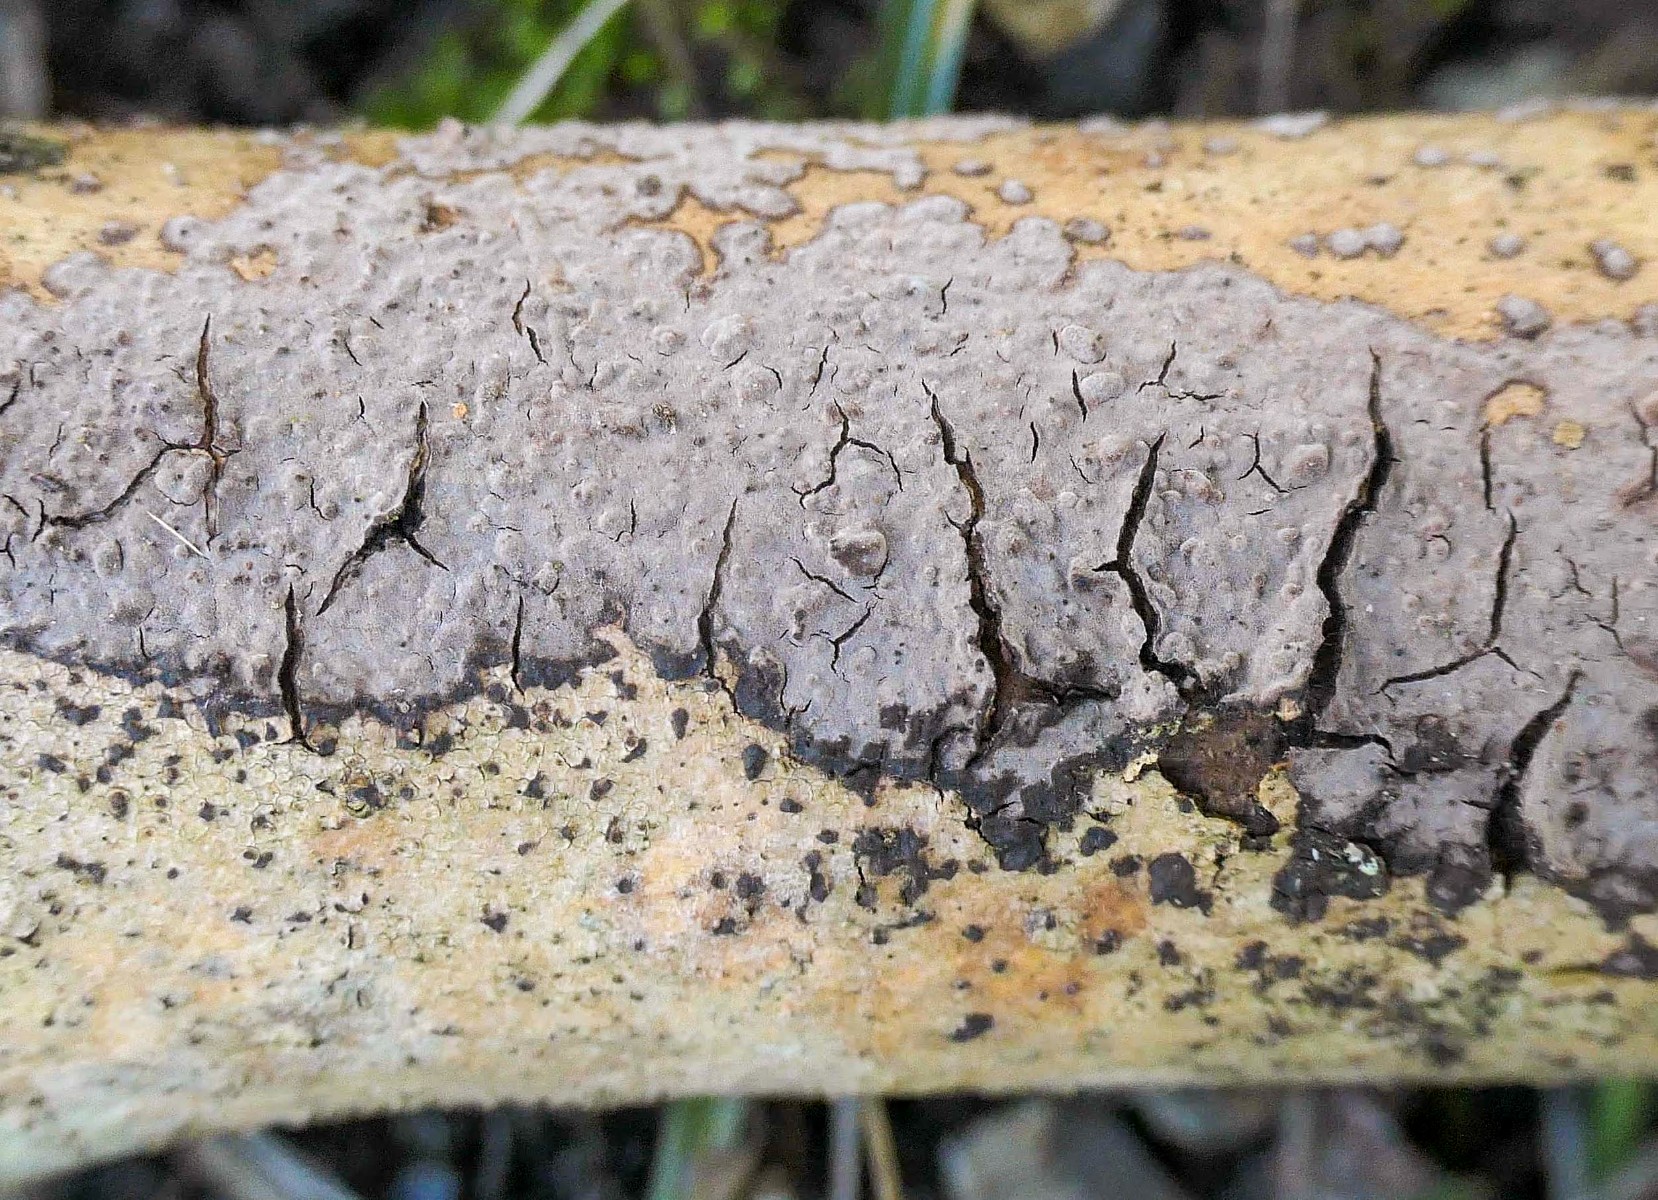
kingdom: Fungi
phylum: Basidiomycota
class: Agaricomycetes
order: Russulales
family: Peniophoraceae
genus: Peniophora
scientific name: Peniophora limitata
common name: mørkrandet voksskind
